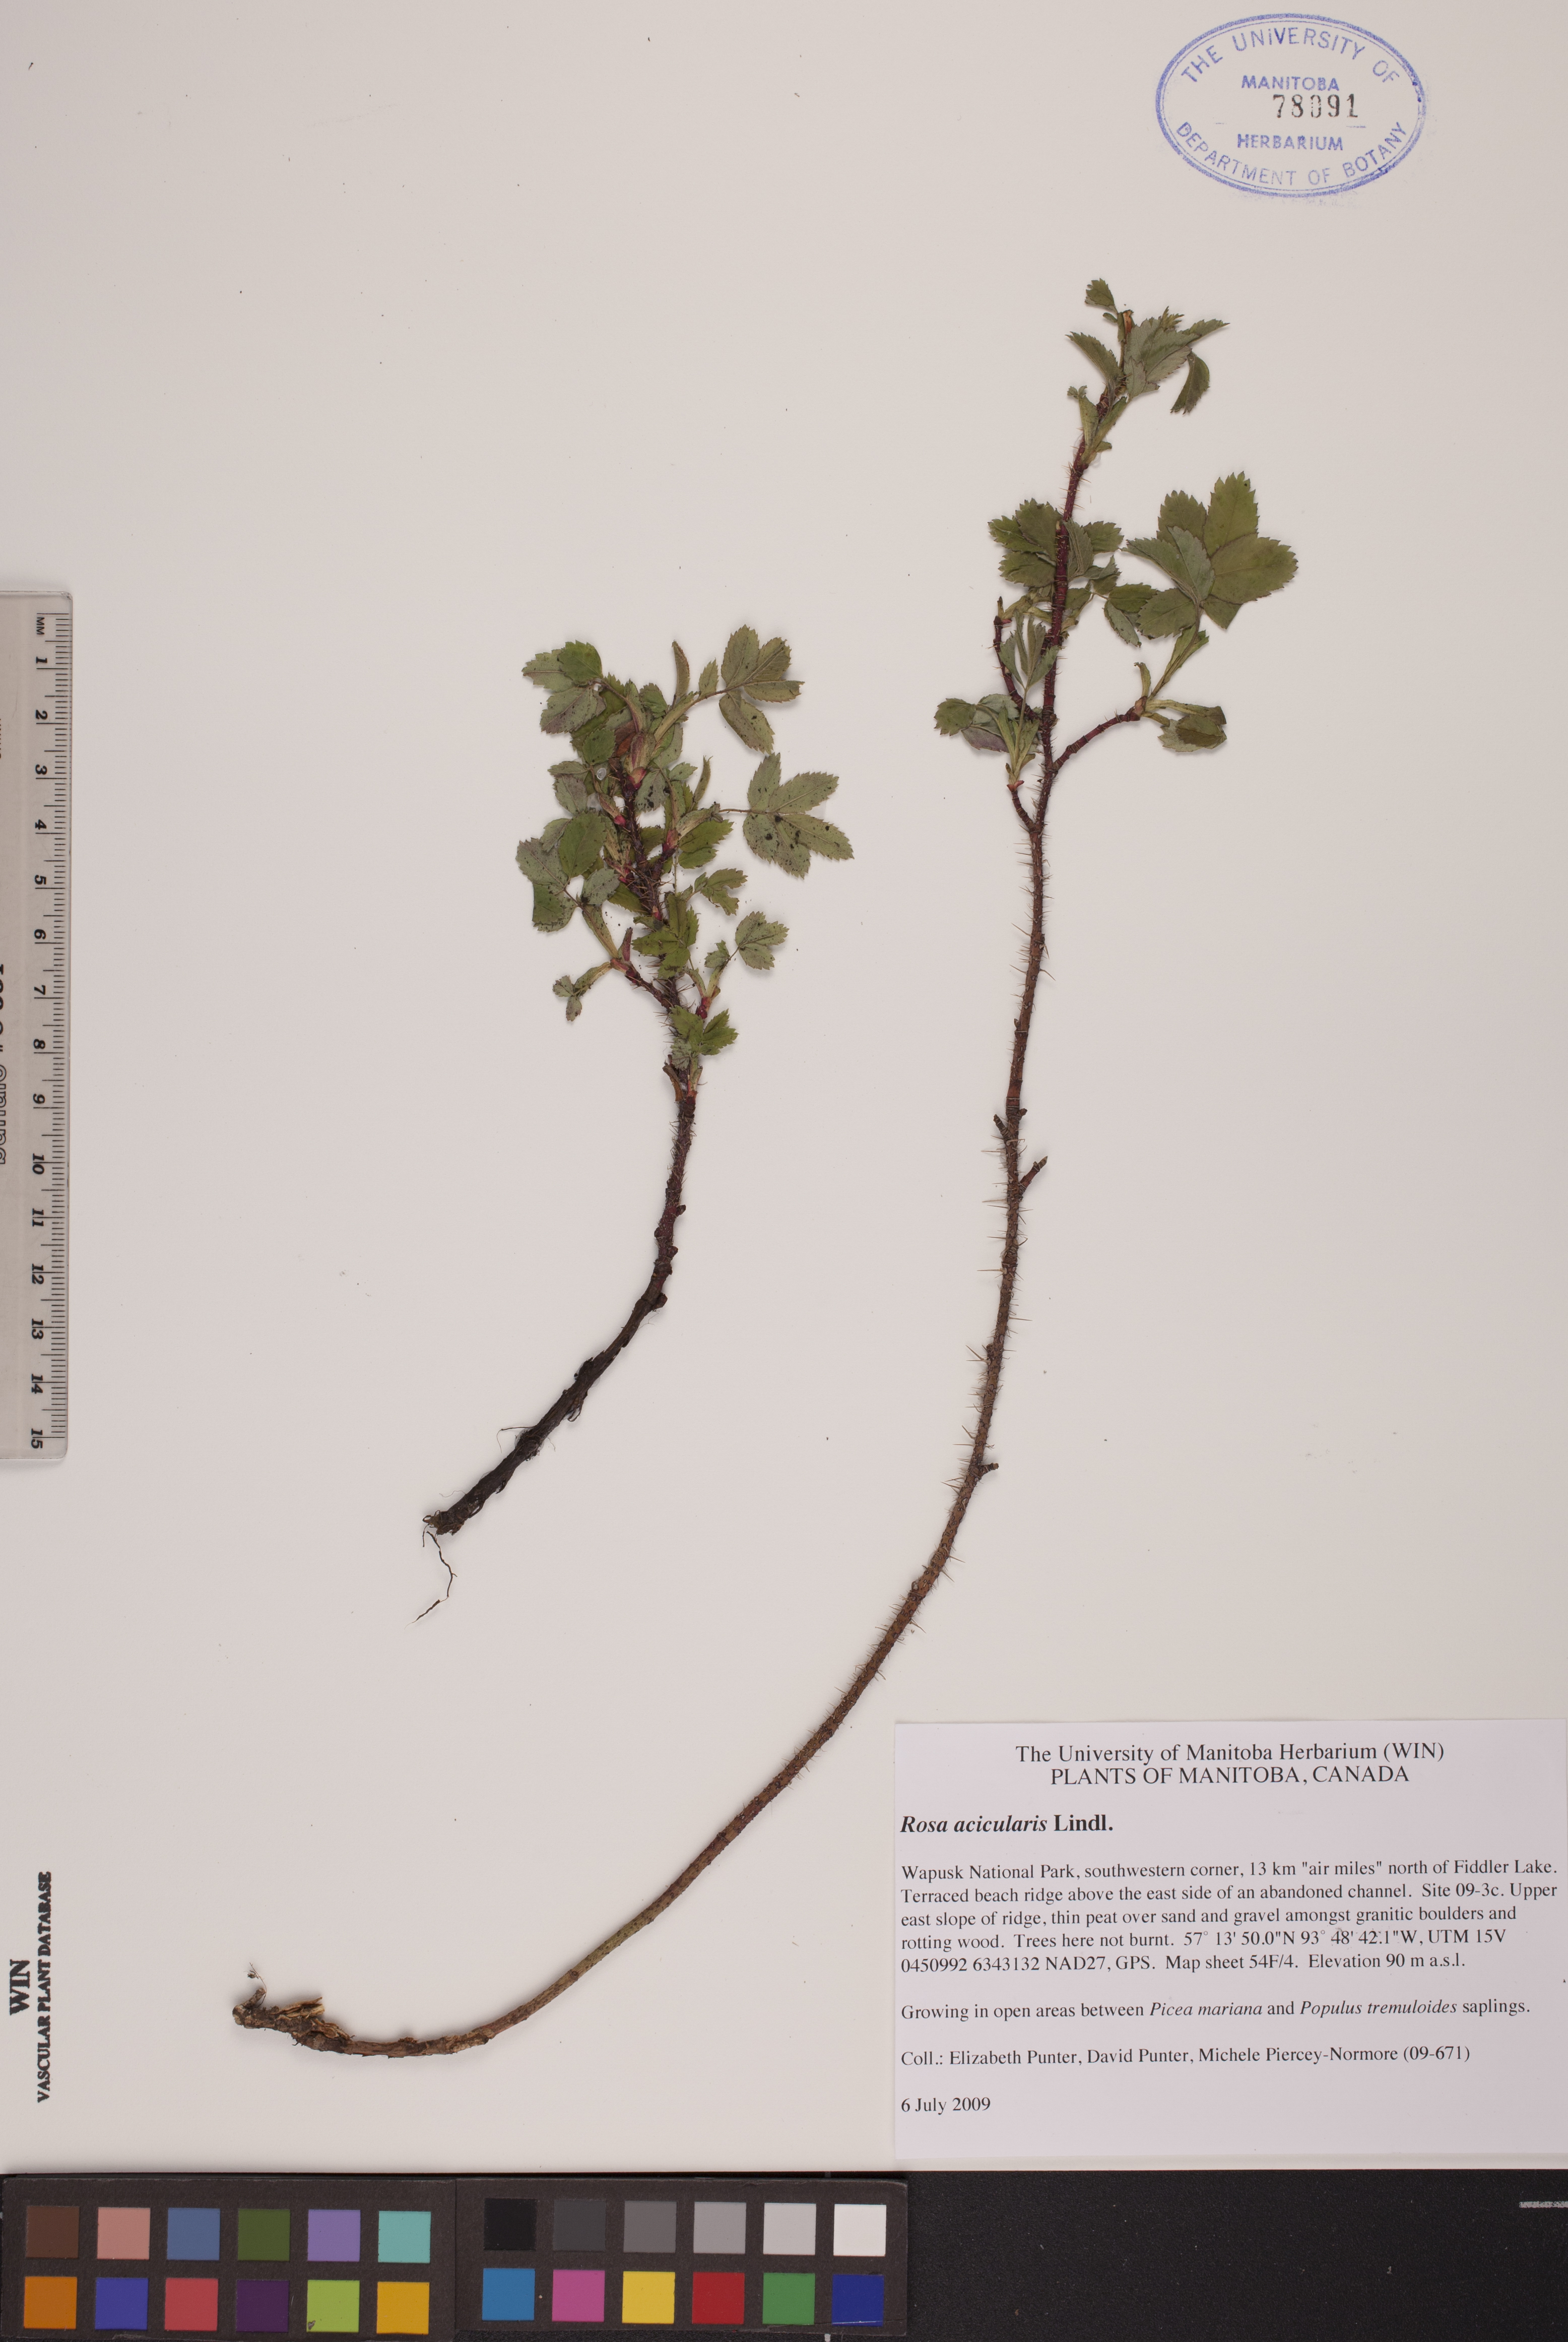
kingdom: Plantae
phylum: Tracheophyta
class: Magnoliopsida
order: Rosales
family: Rosaceae
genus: Rosa
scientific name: Rosa acicularis
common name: Prickly rose
